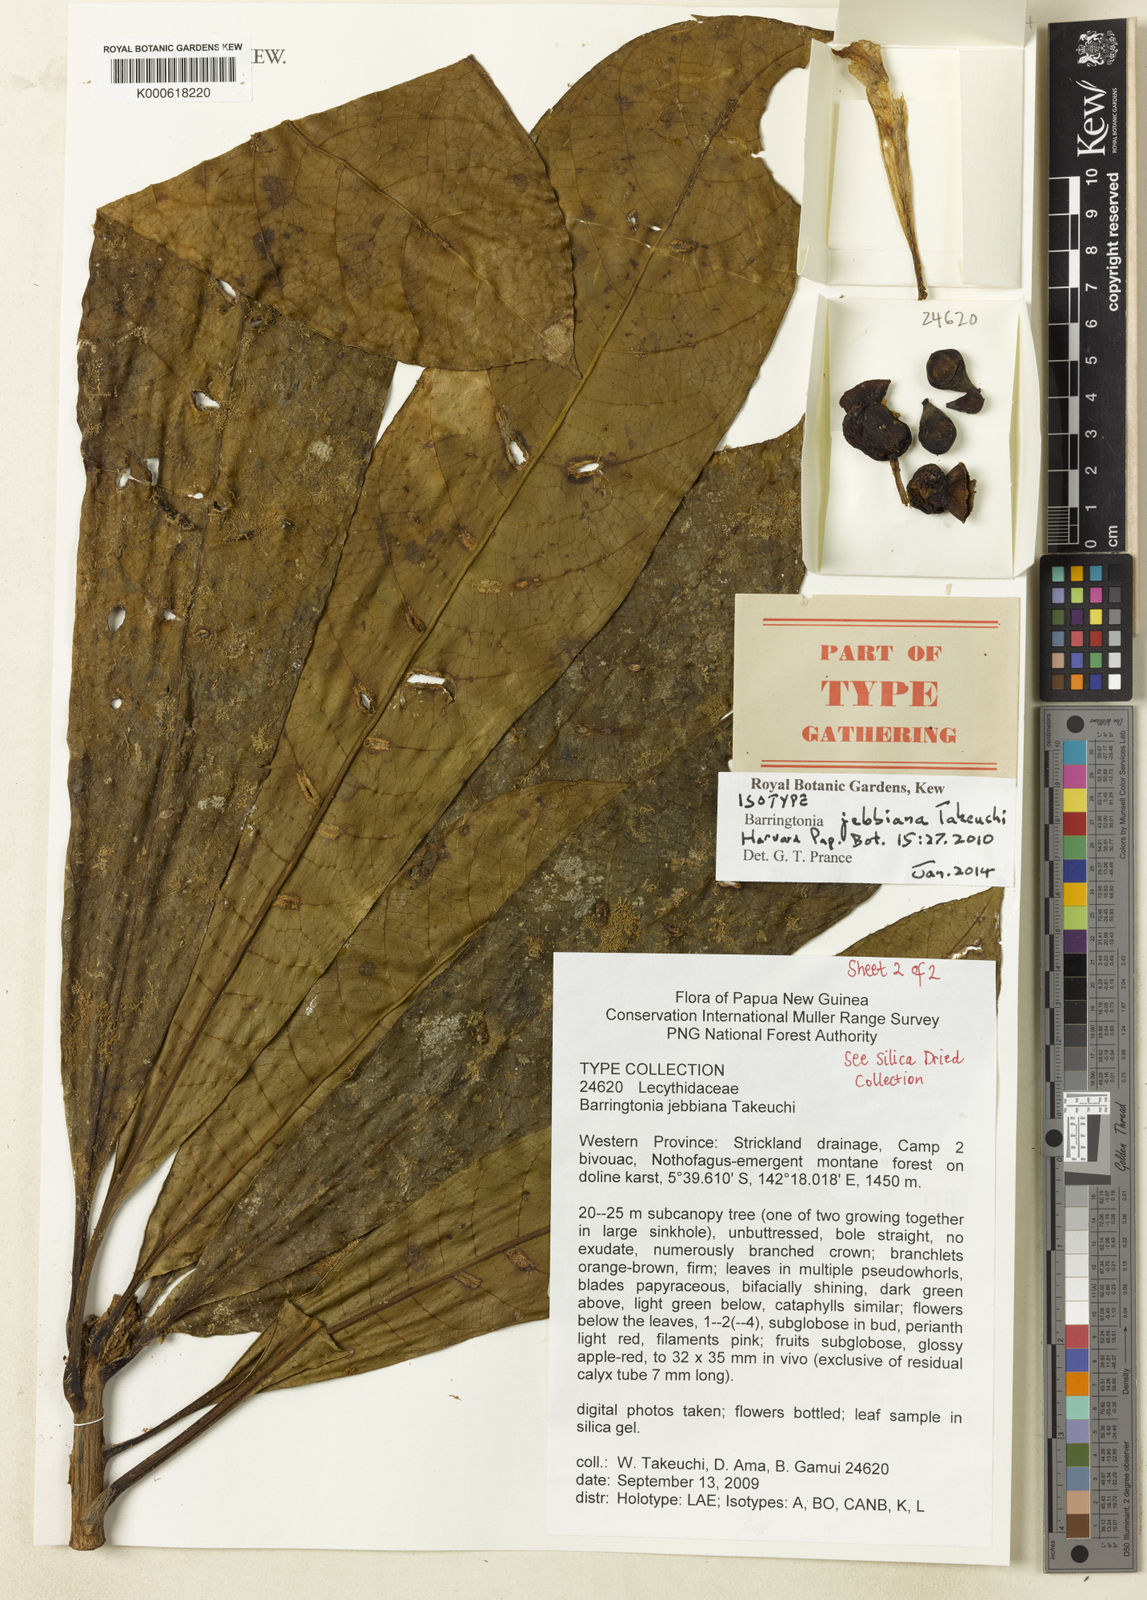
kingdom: Plantae
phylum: Tracheophyta
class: Magnoliopsida
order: Ericales
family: Lecythidaceae
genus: Barringtonia
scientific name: Barringtonia jebbiana
